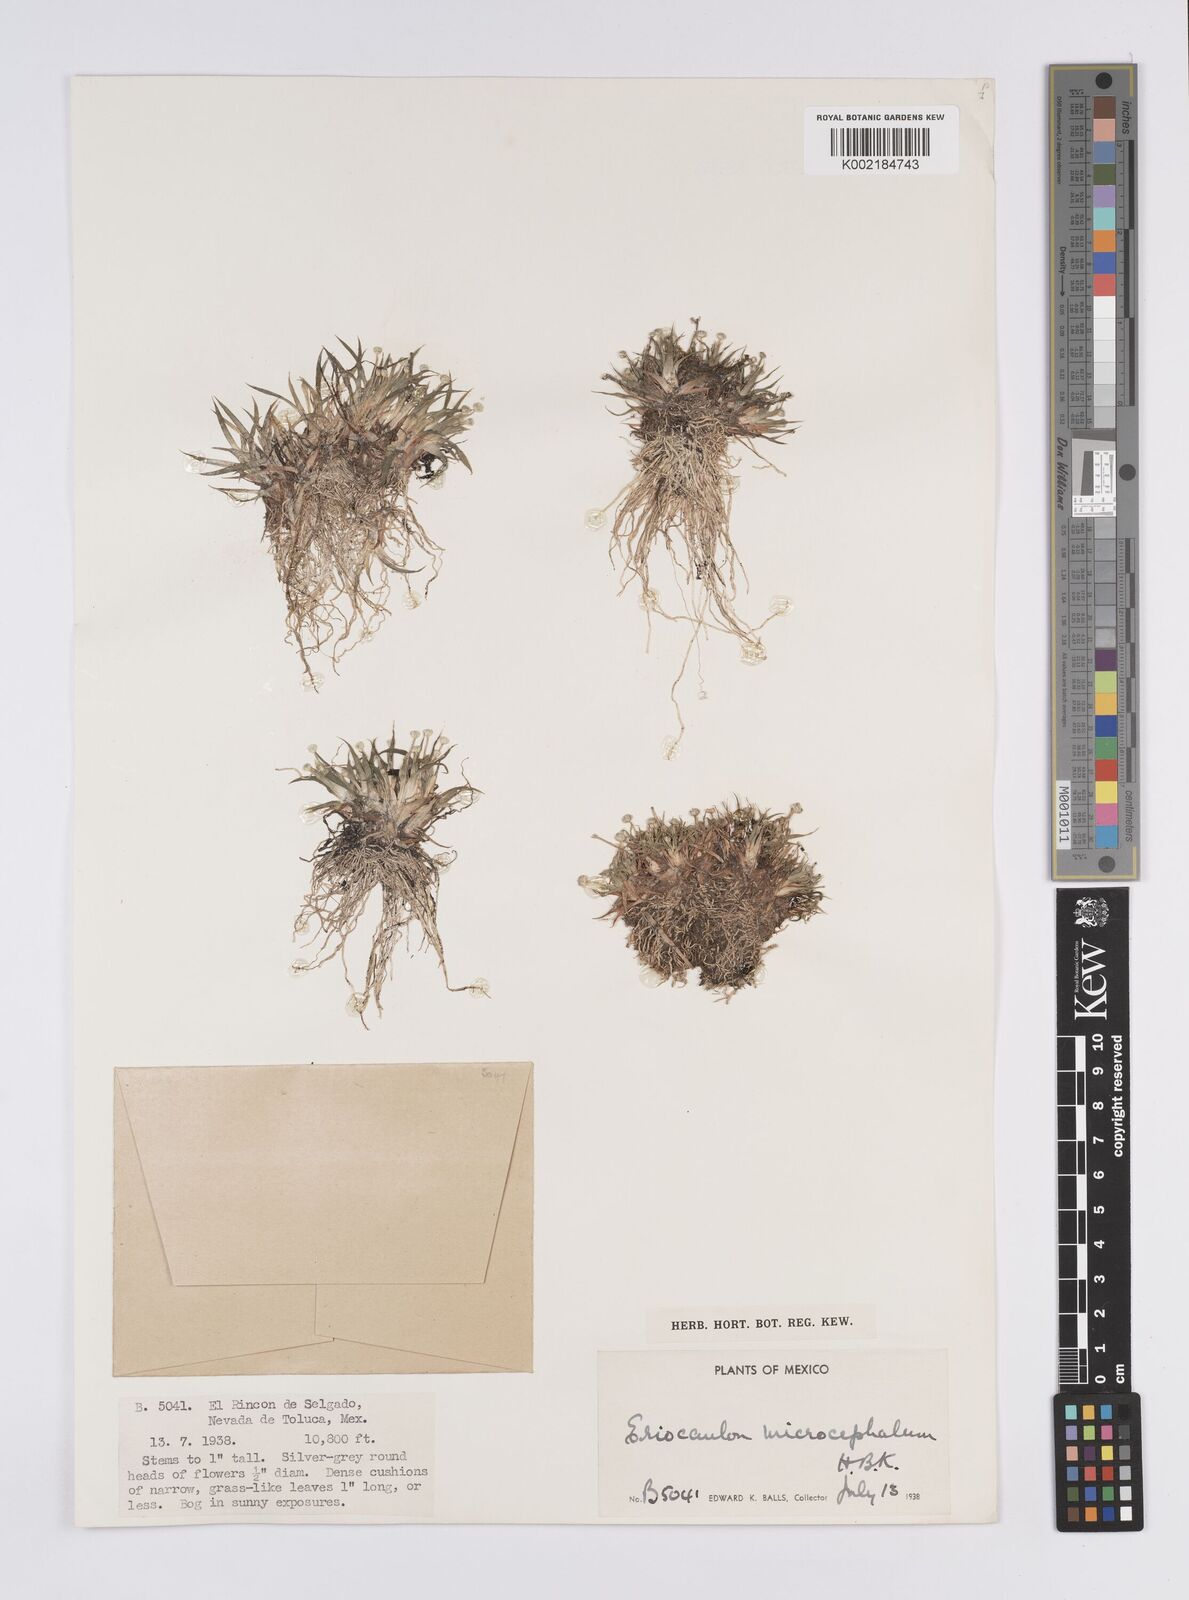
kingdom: Plantae
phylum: Tracheophyta
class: Liliopsida
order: Poales
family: Eriocaulaceae
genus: Eriocaulon
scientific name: Eriocaulon benthamii
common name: Bentham's pipewort
